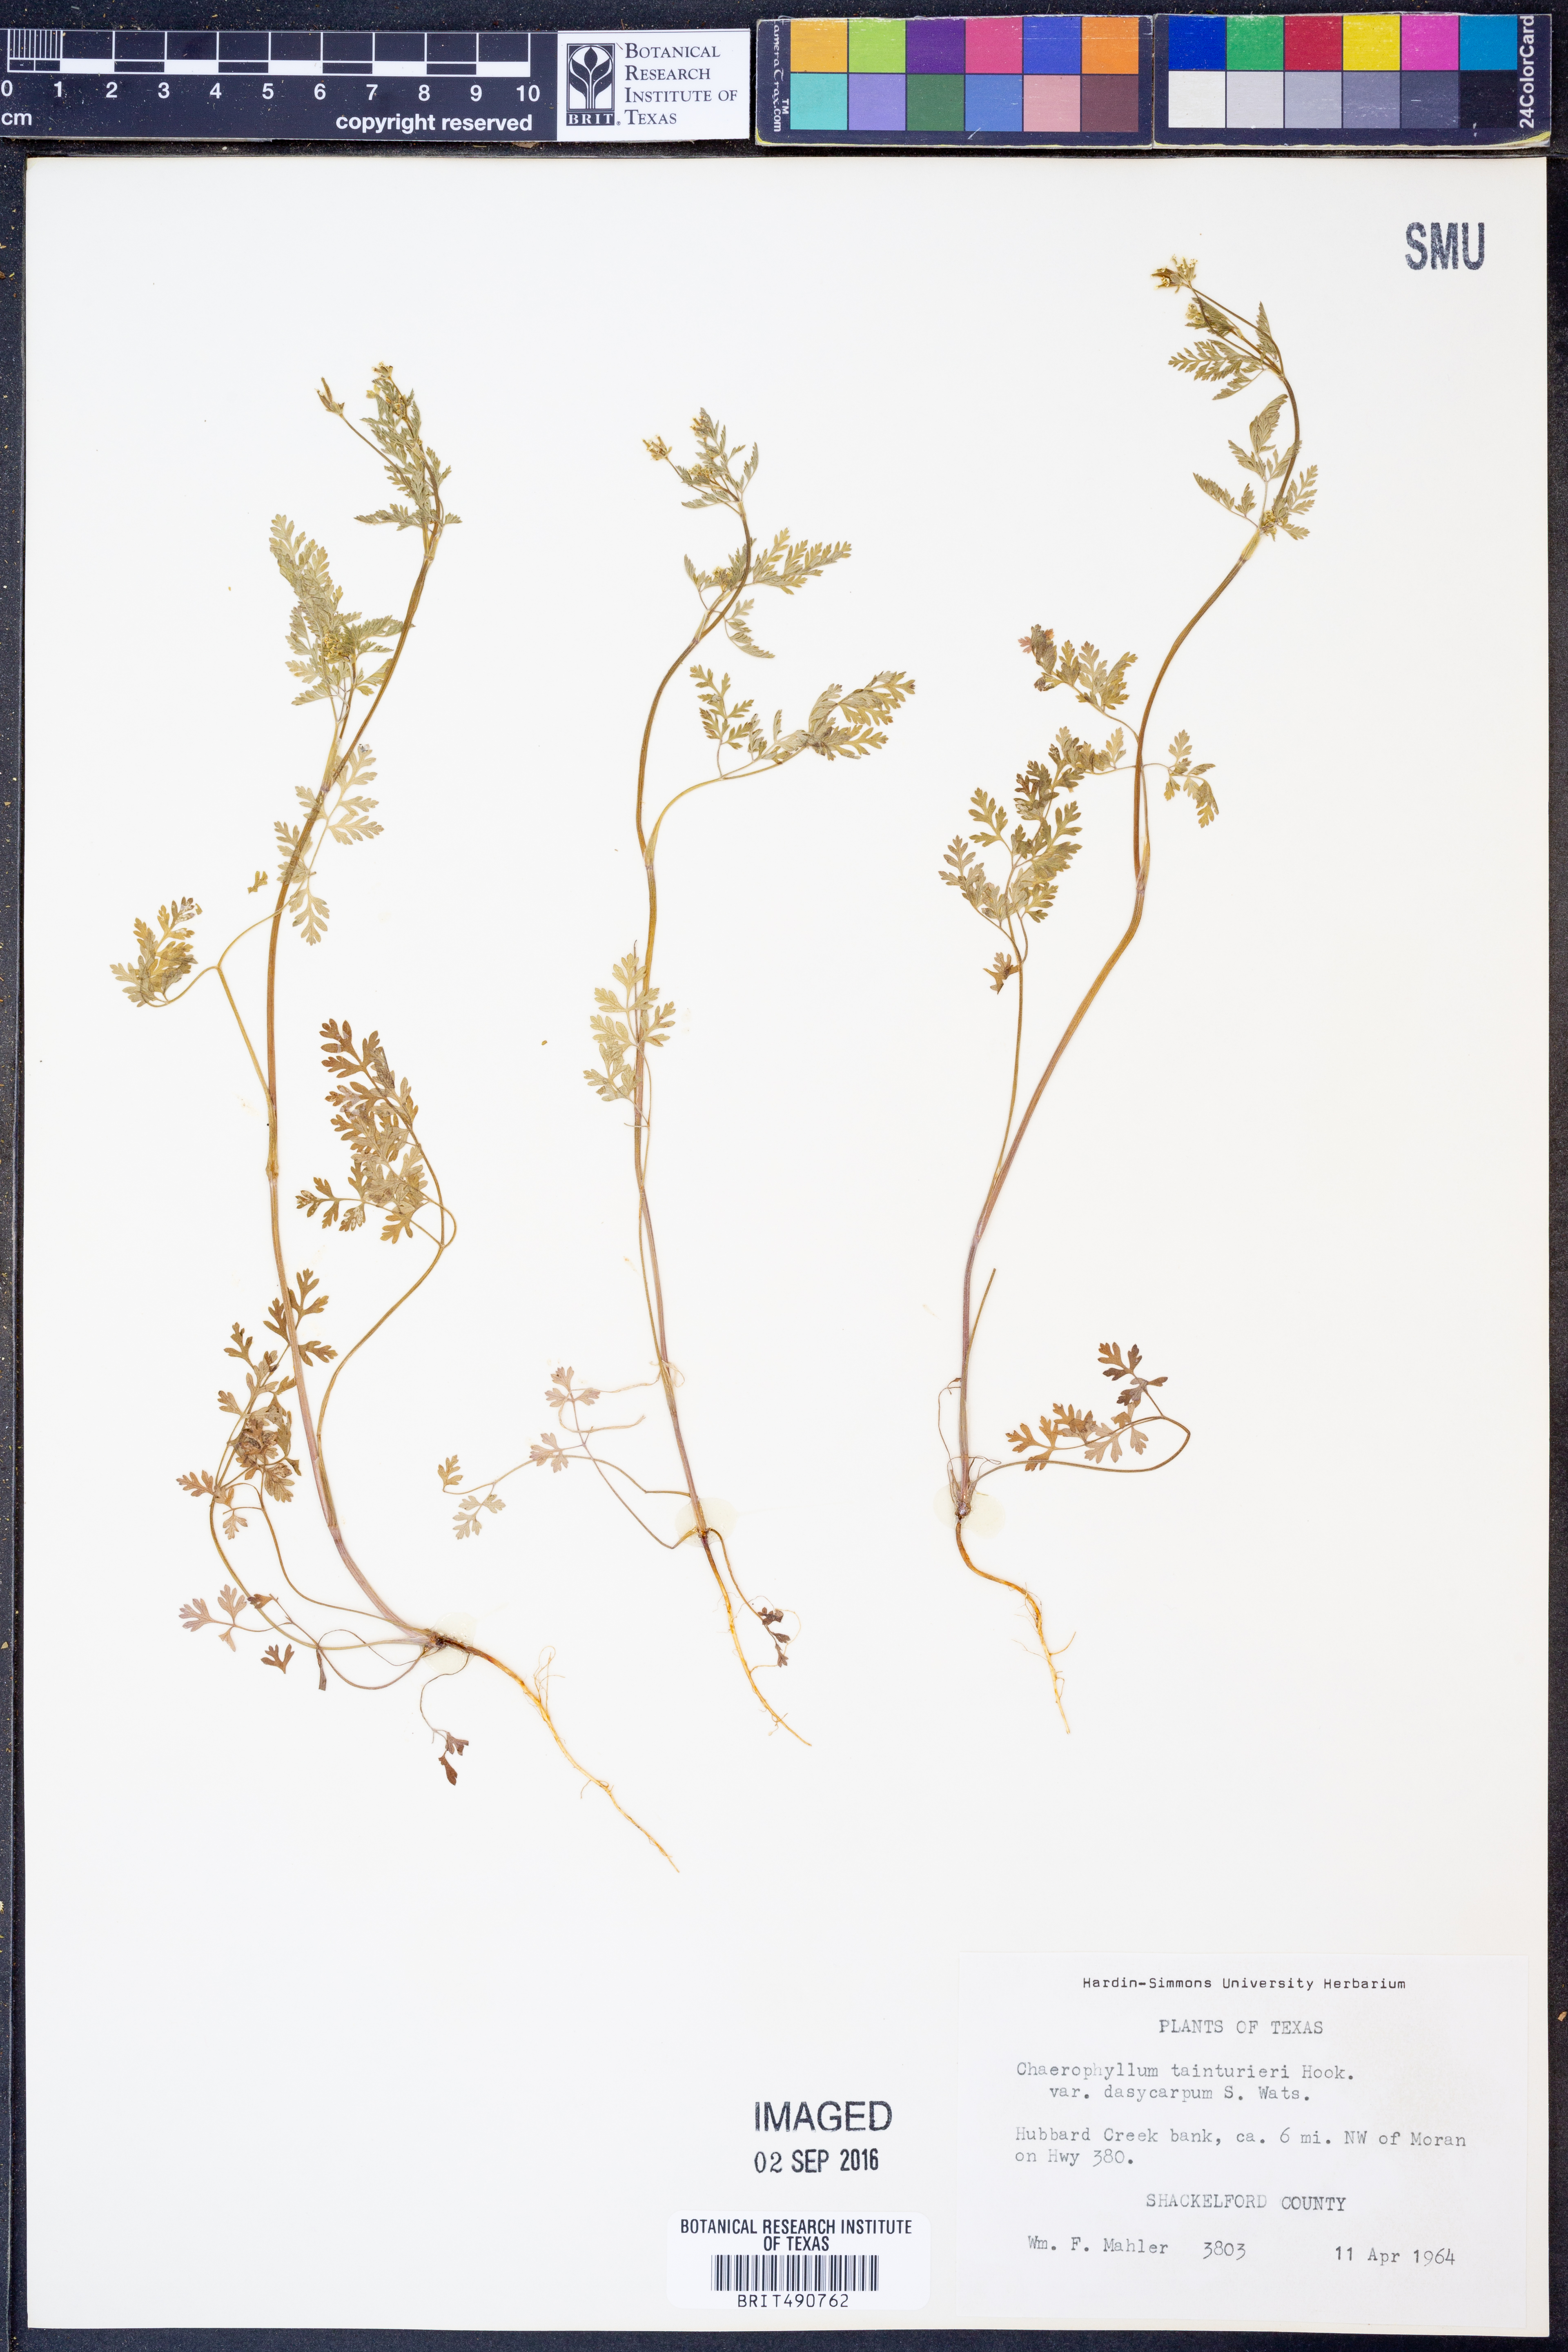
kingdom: Plantae
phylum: Tracheophyta
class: Magnoliopsida
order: Apiales
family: Apiaceae
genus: Chaerophyllum
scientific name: Chaerophyllum dasycarpum
